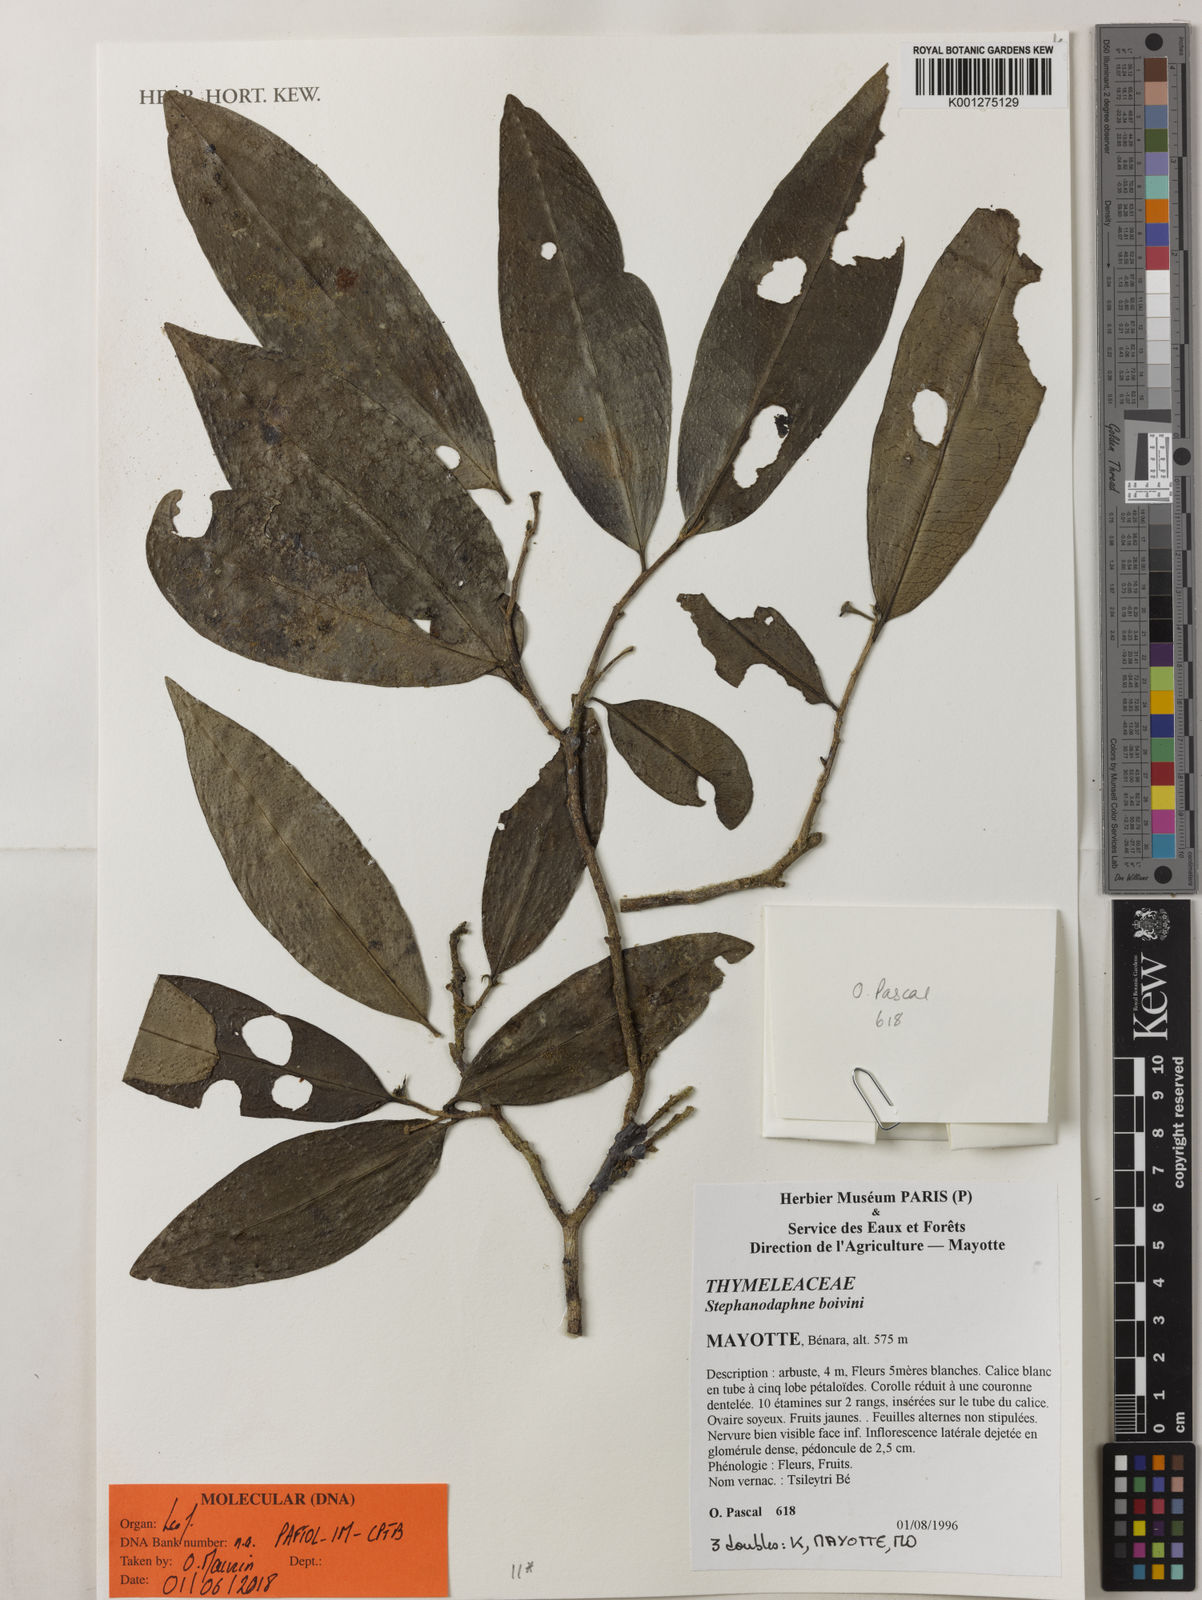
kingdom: Plantae
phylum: Tracheophyta
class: Magnoliopsida
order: Malvales
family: Thymelaeaceae
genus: Stephanodaphne
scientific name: Stephanodaphne boivinii
